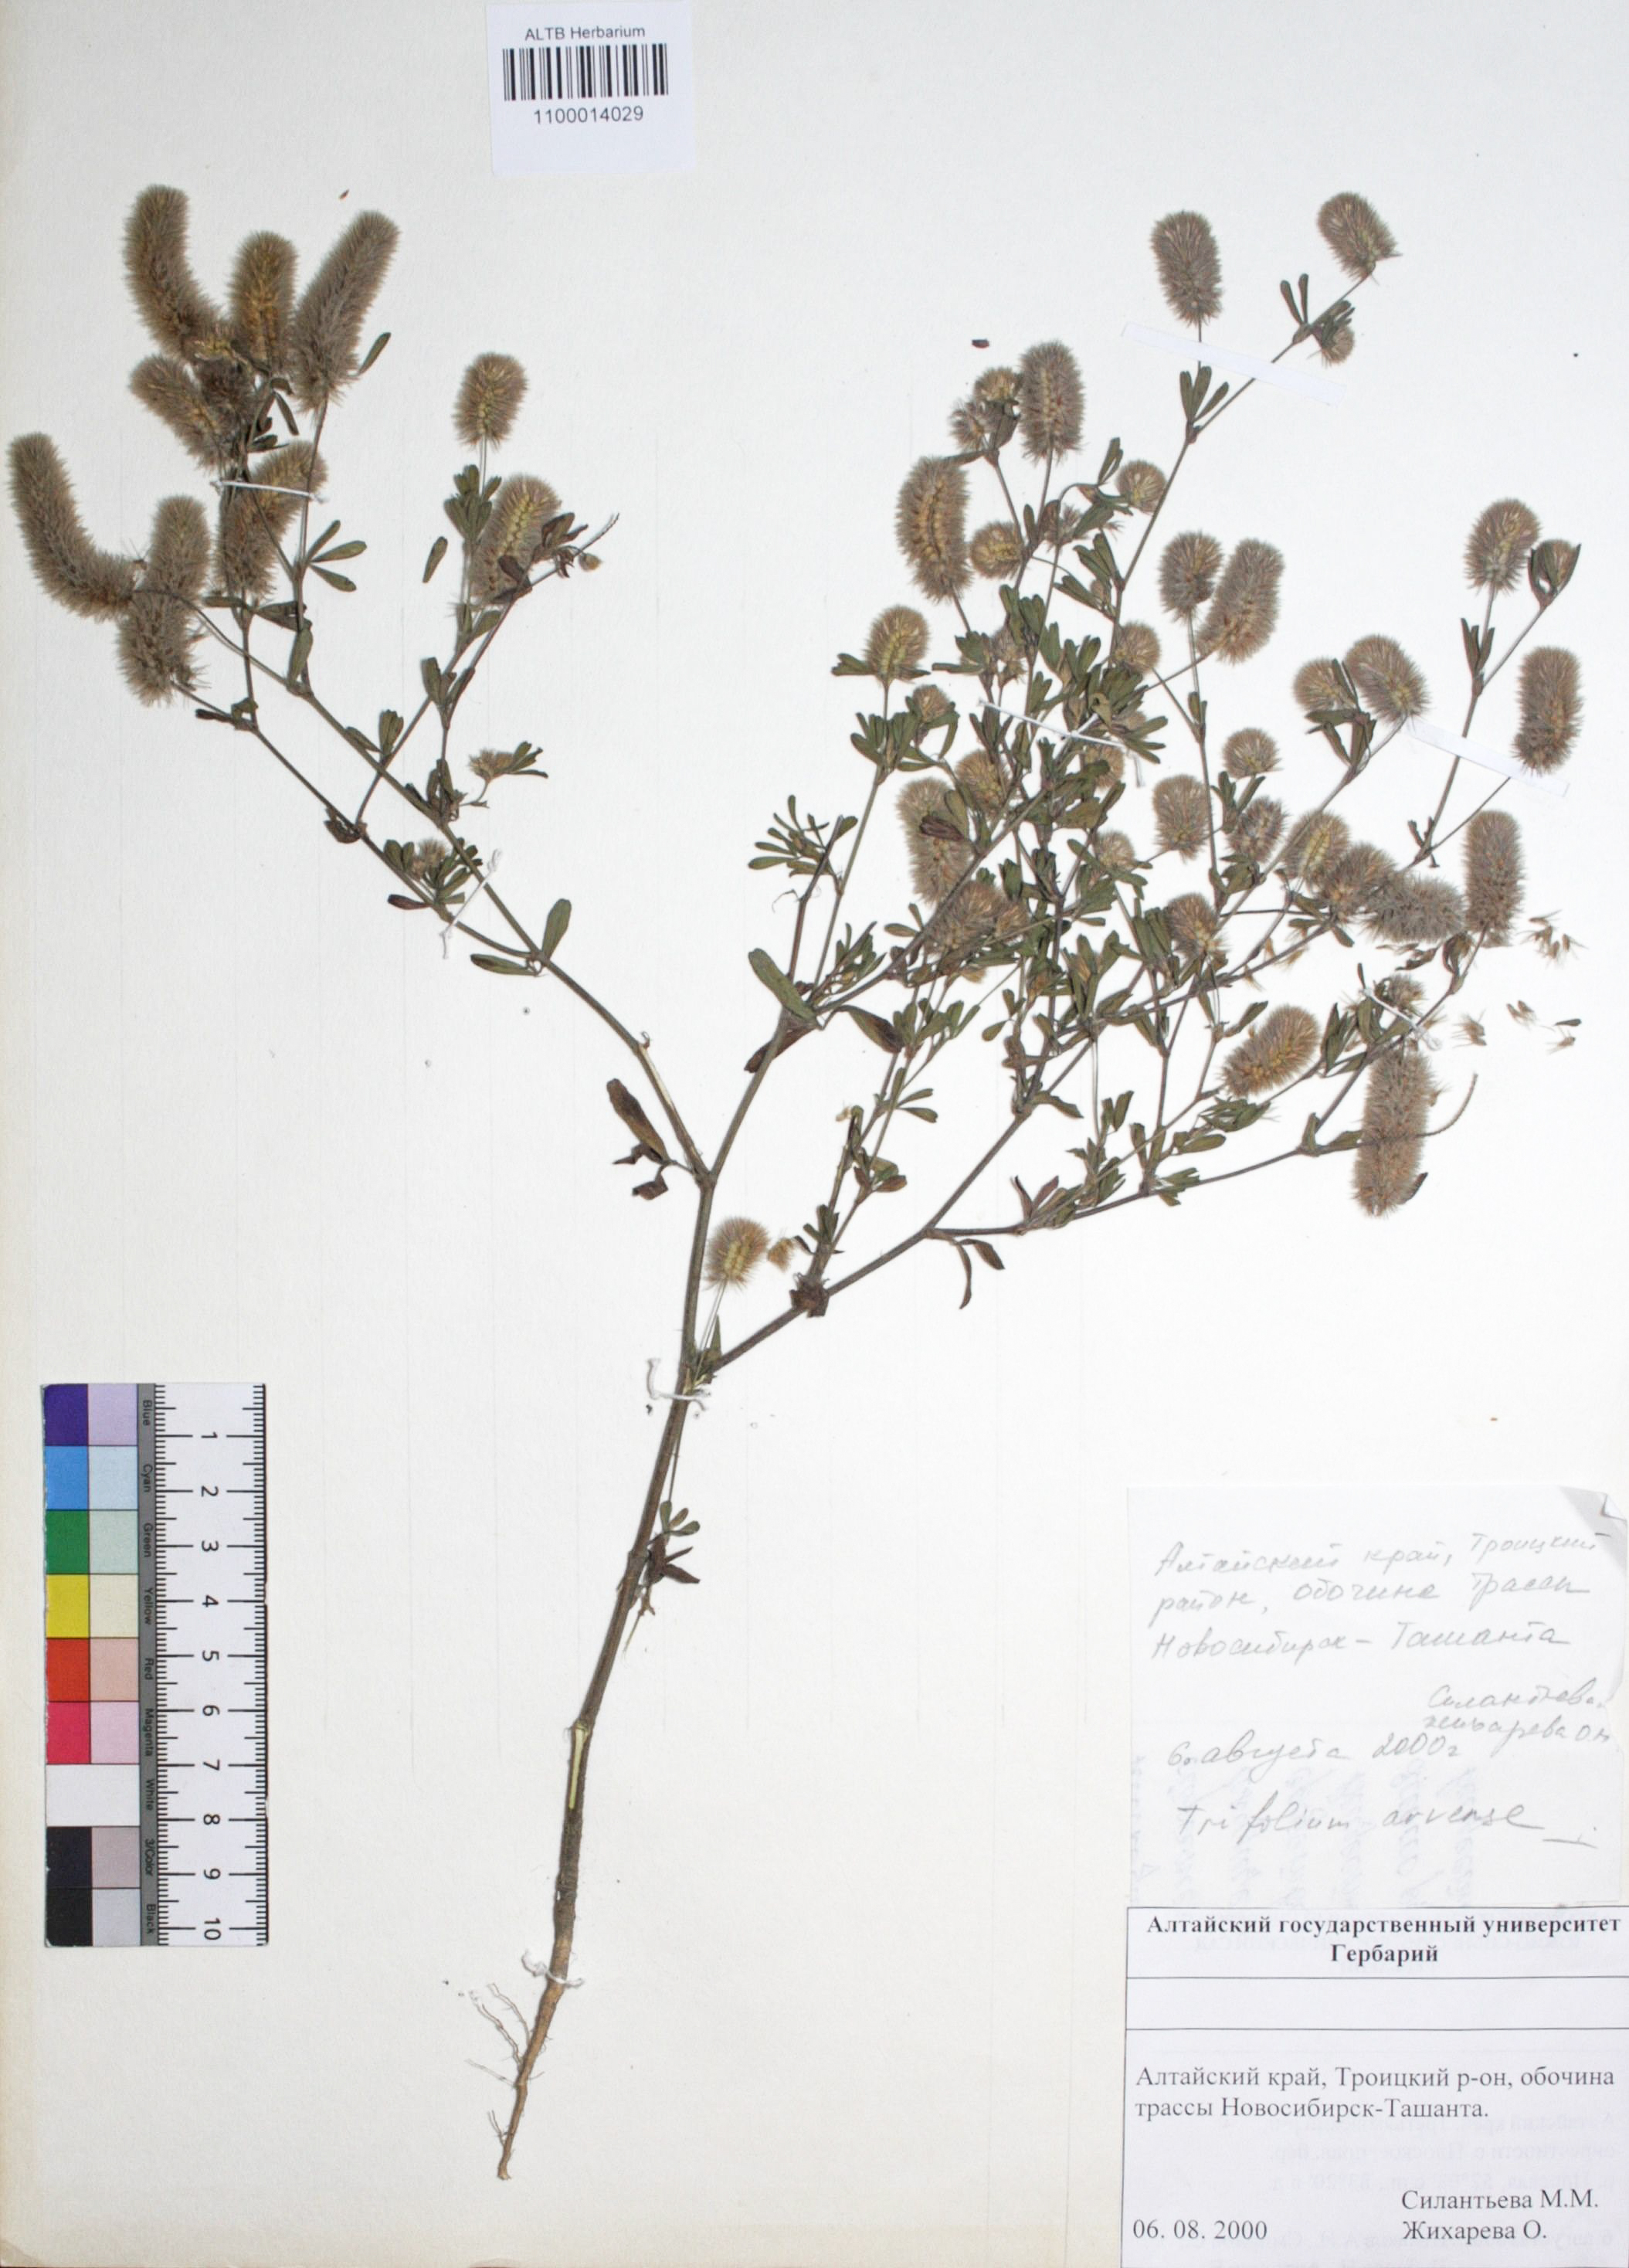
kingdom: Plantae
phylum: Tracheophyta
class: Magnoliopsida
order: Fabales
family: Fabaceae
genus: Trifolium
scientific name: Trifolium arvense
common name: Hare's-foot clover
